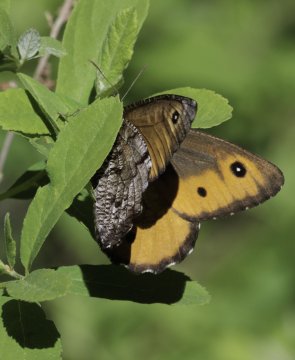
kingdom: Animalia
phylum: Arthropoda
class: Insecta
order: Lepidoptera
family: Nymphalidae
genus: Oeneis
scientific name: Oeneis nevadensis
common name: Great Arctic
